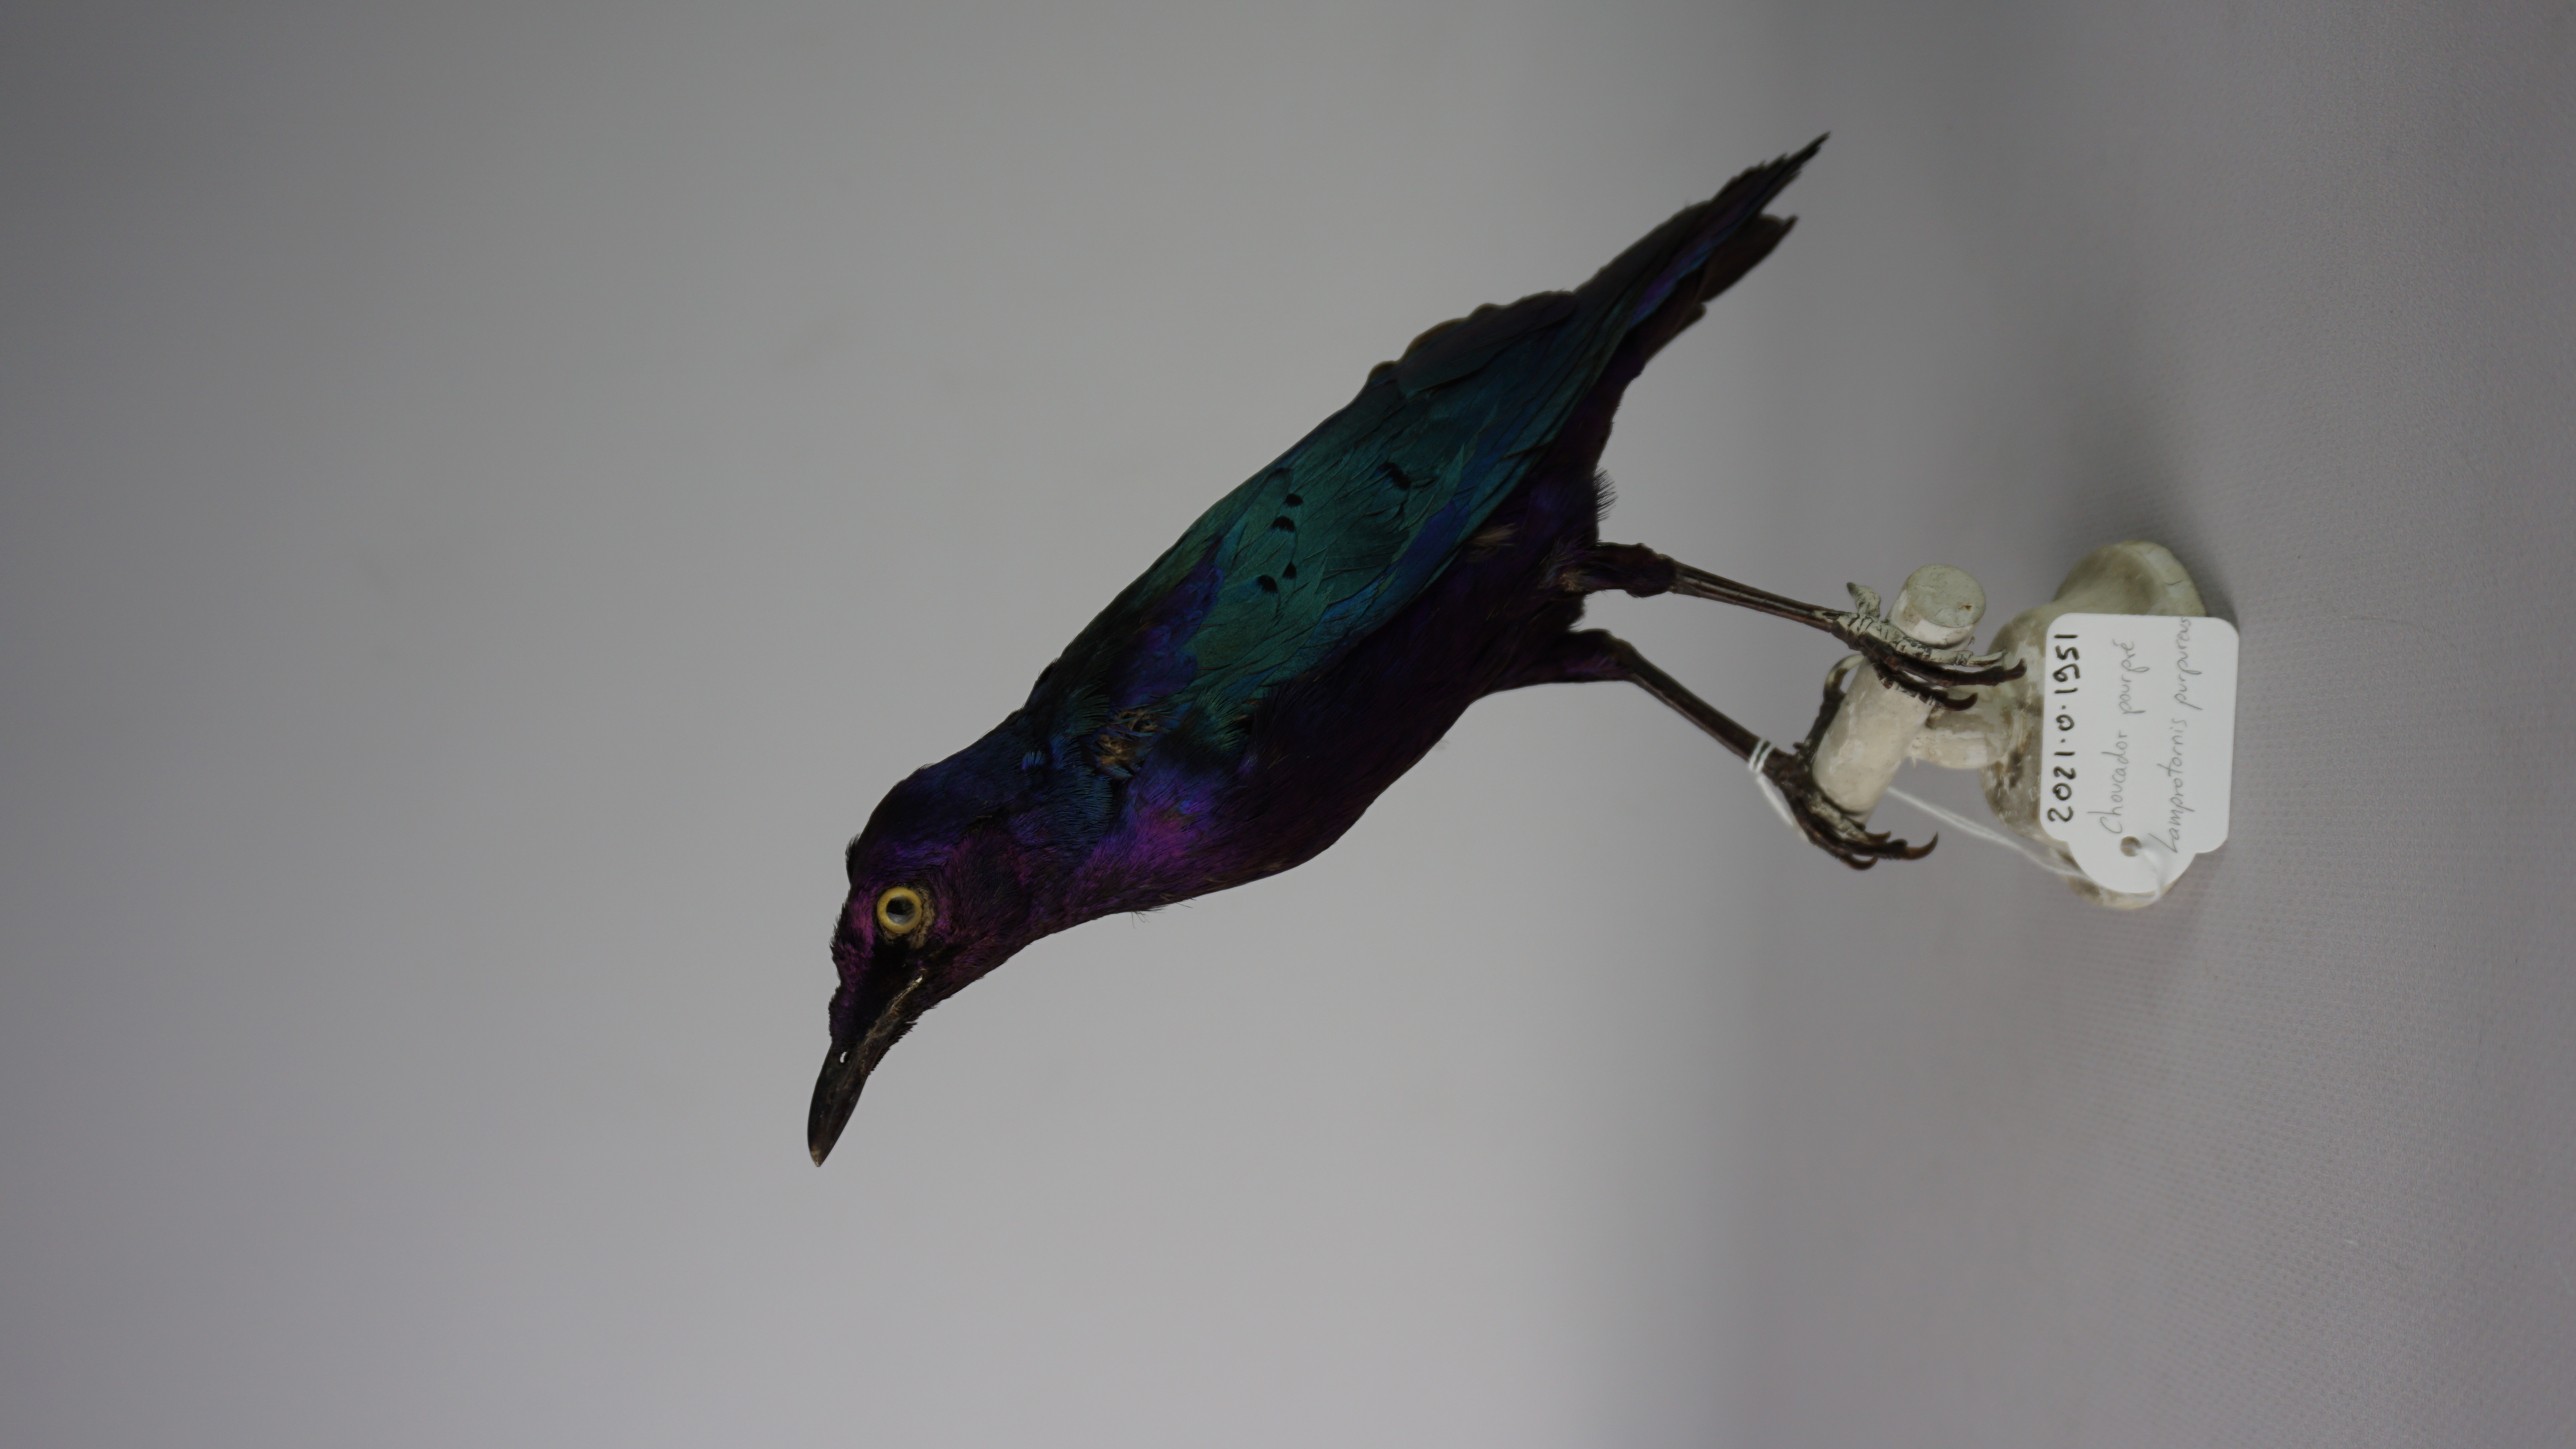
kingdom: Animalia
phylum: Chordata
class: Aves
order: Passeriformes
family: Sturnidae
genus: Lamprotornis
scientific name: Lamprotornis purpureus
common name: Purple starling
